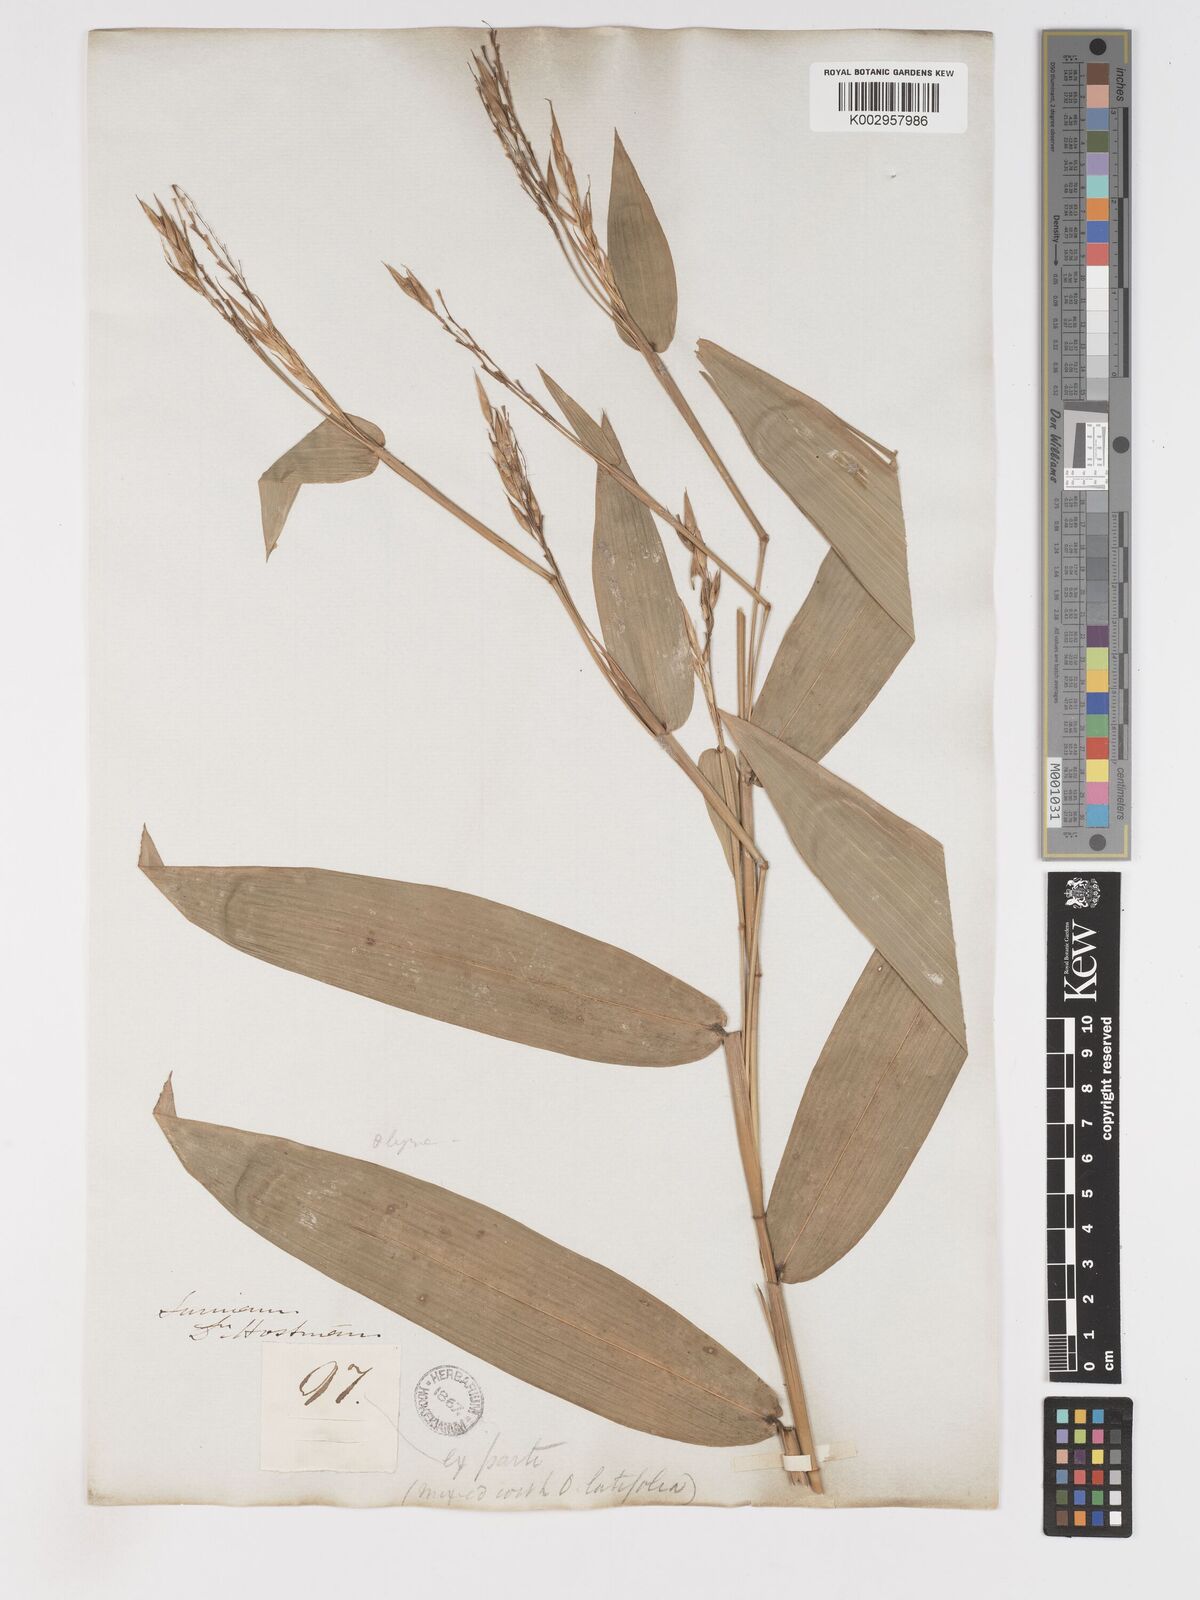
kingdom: Plantae
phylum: Tracheophyta
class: Liliopsida
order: Poales
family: Poaceae
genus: Olyra
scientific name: Olyra longifolia
